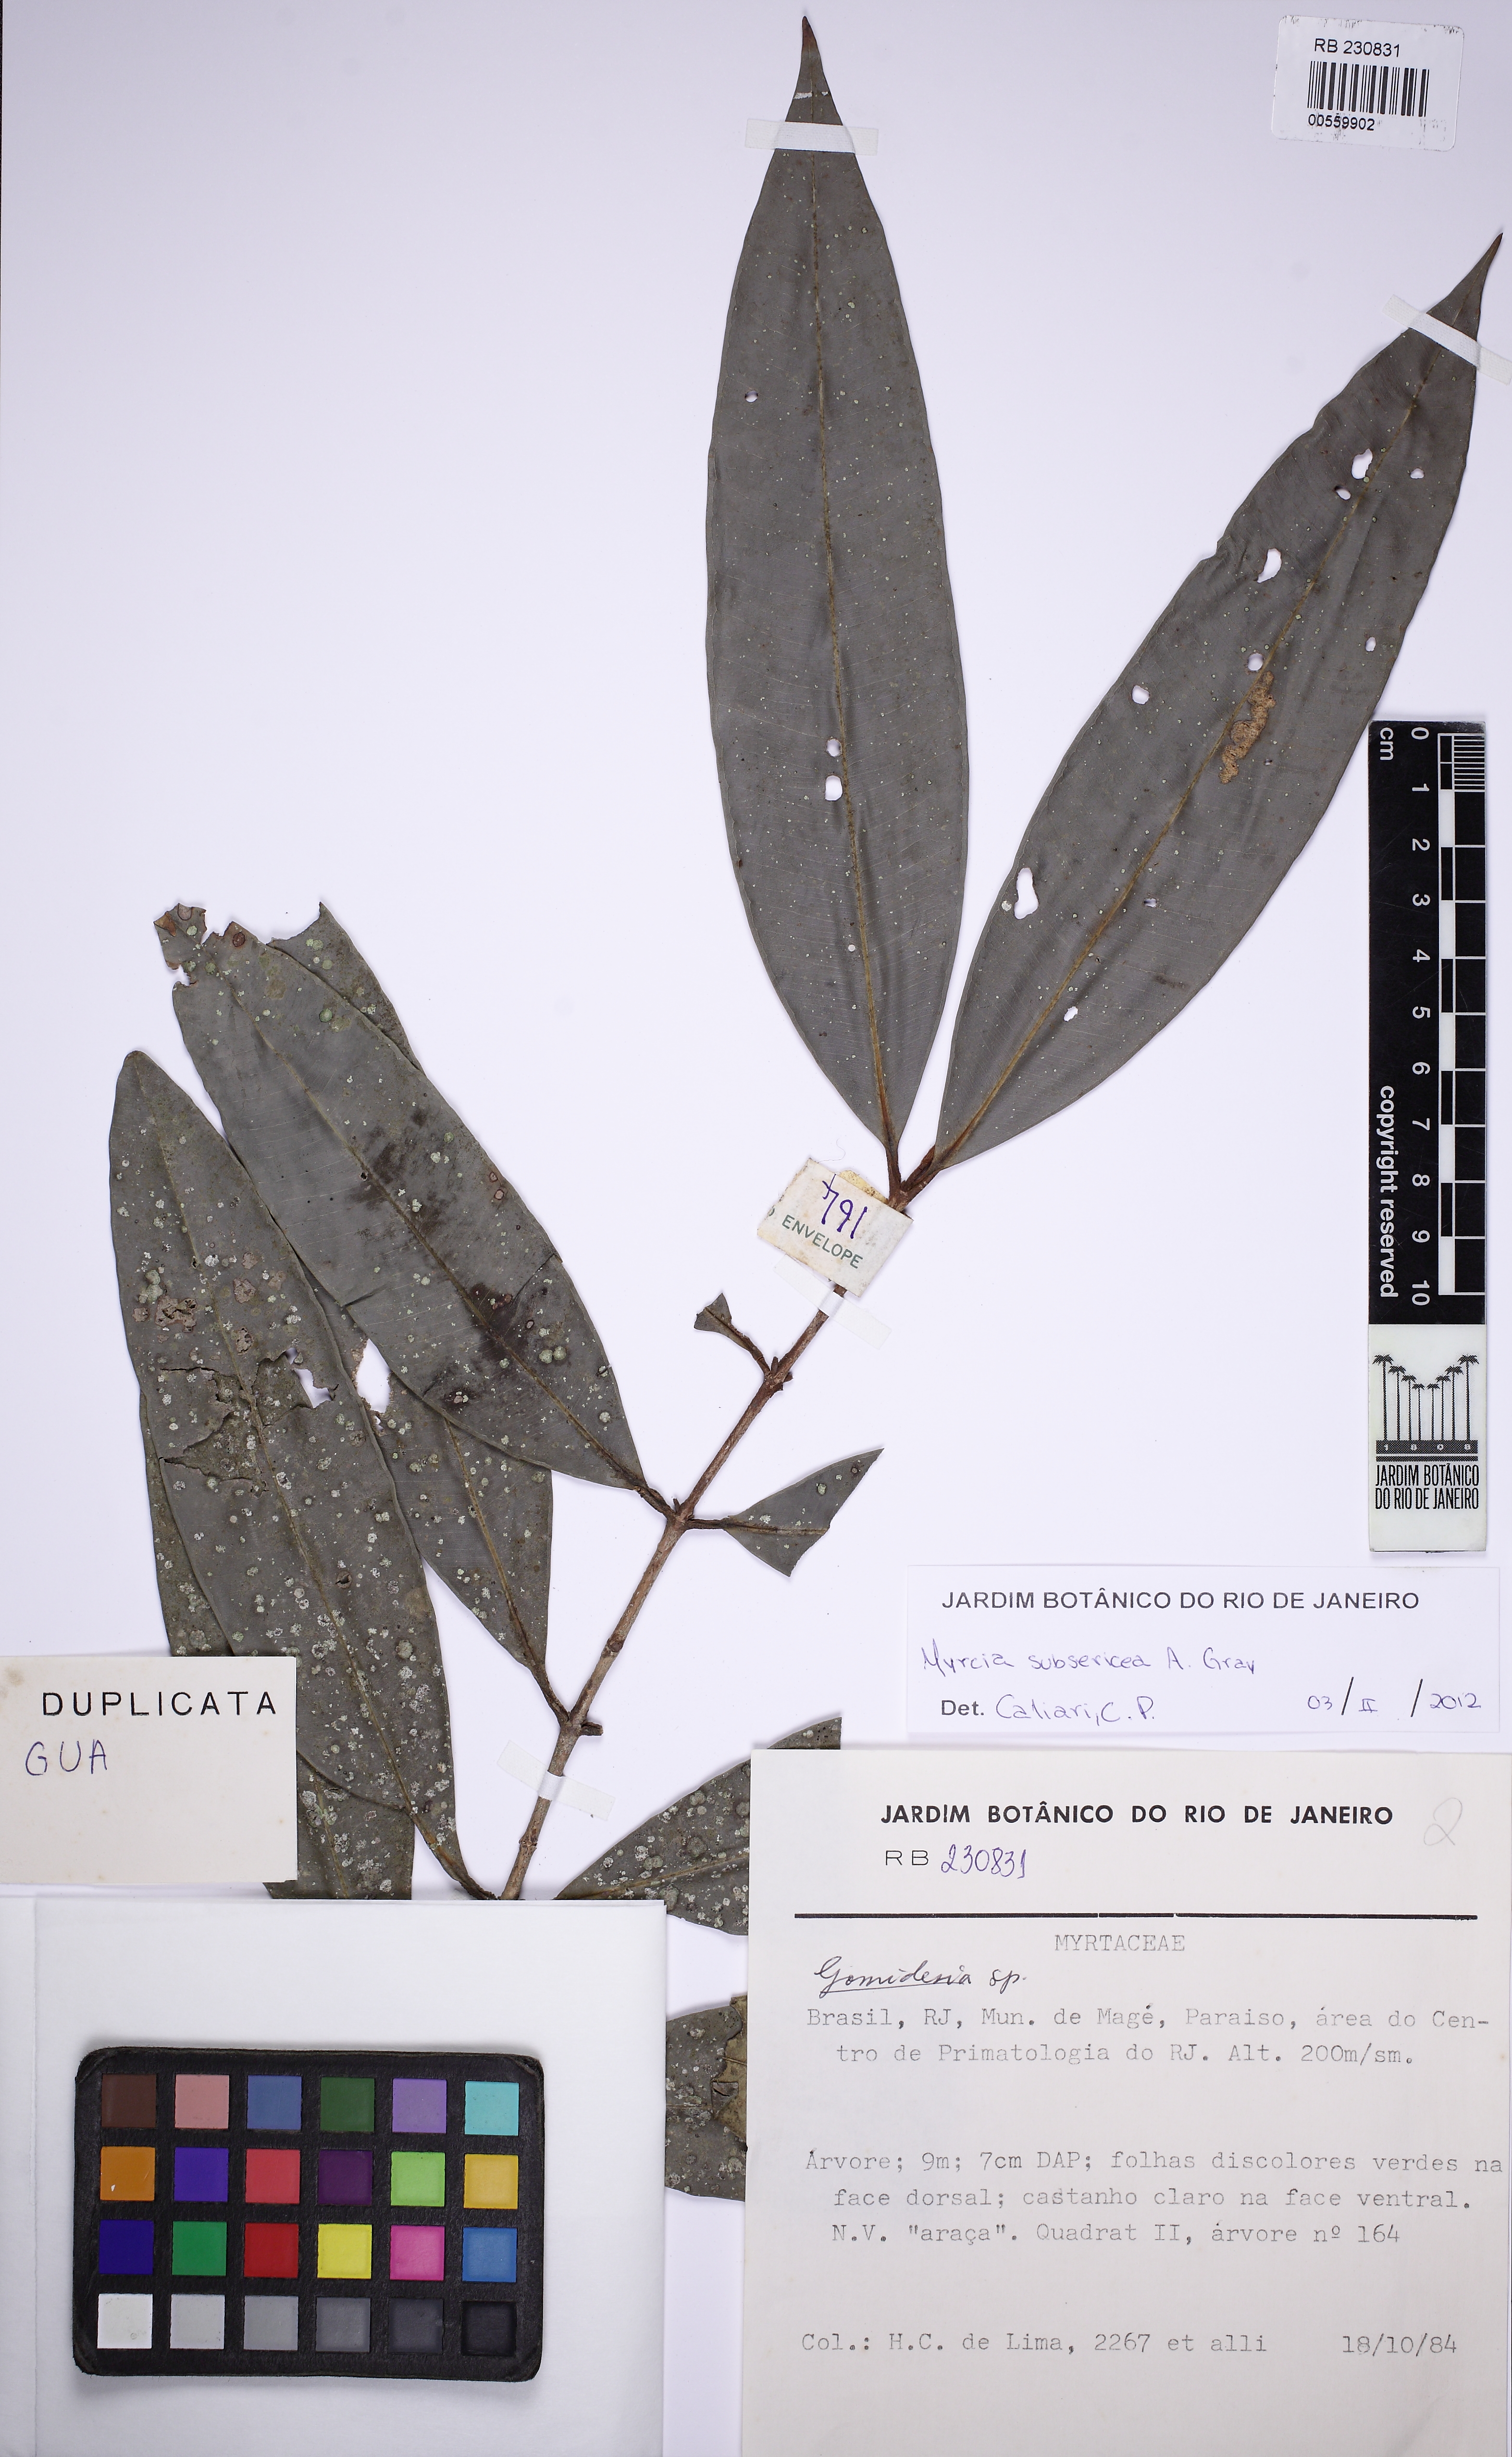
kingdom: Plantae
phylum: Tracheophyta
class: Magnoliopsida
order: Myrtales
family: Myrtaceae
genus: Myrcia
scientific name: Myrcia subsericea
